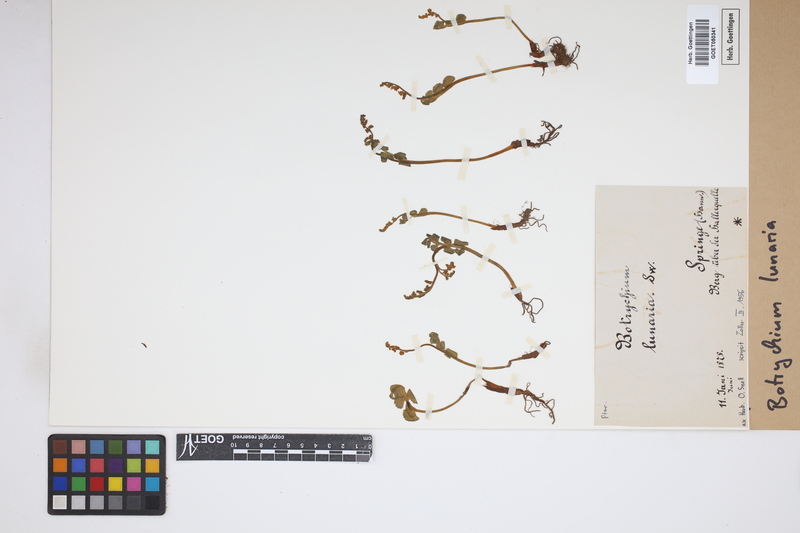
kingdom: Plantae
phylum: Tracheophyta
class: Polypodiopsida
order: Ophioglossales
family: Ophioglossaceae
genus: Botrychium
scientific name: Botrychium lunaria
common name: Moonwort
